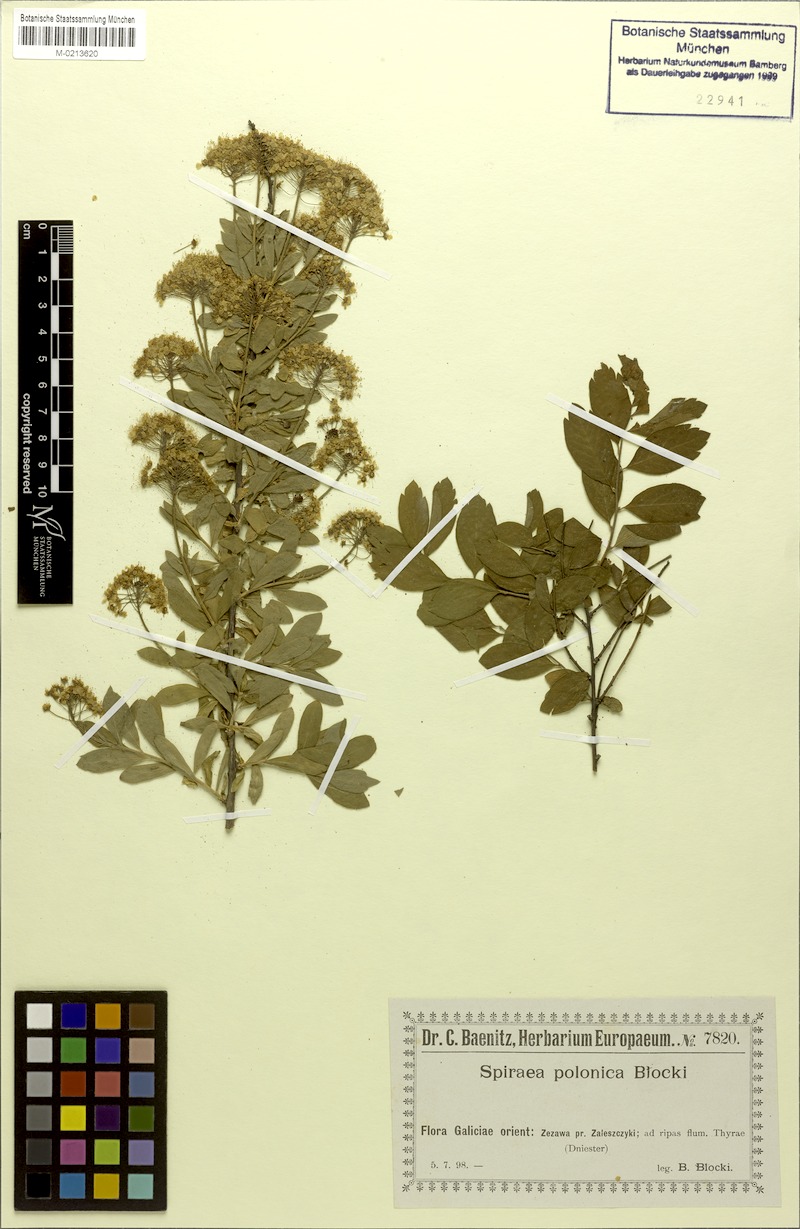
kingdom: Plantae
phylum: Tracheophyta
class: Magnoliopsida
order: Rosales
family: Rosaceae
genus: Spiraea
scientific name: Spiraea media
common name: Russian spiraea
